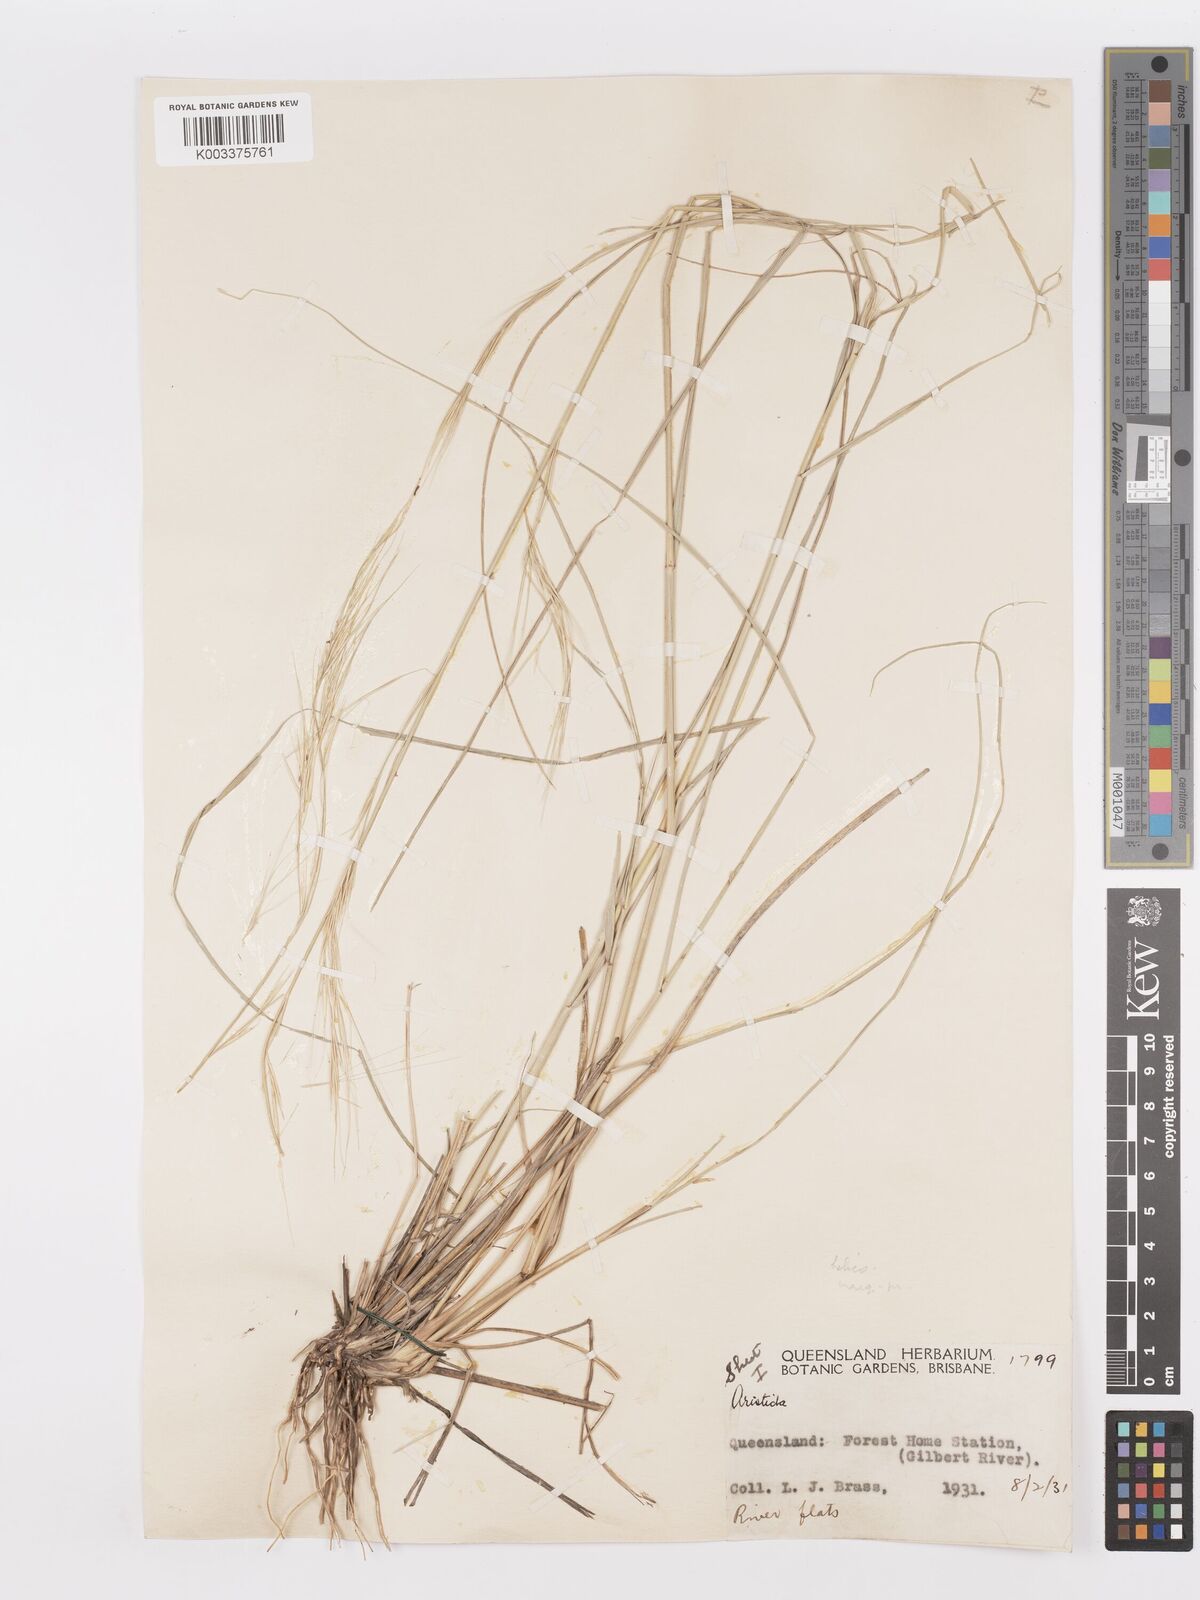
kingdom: Plantae
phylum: Tracheophyta
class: Liliopsida
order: Poales
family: Poaceae
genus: Aristida
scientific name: Aristida
